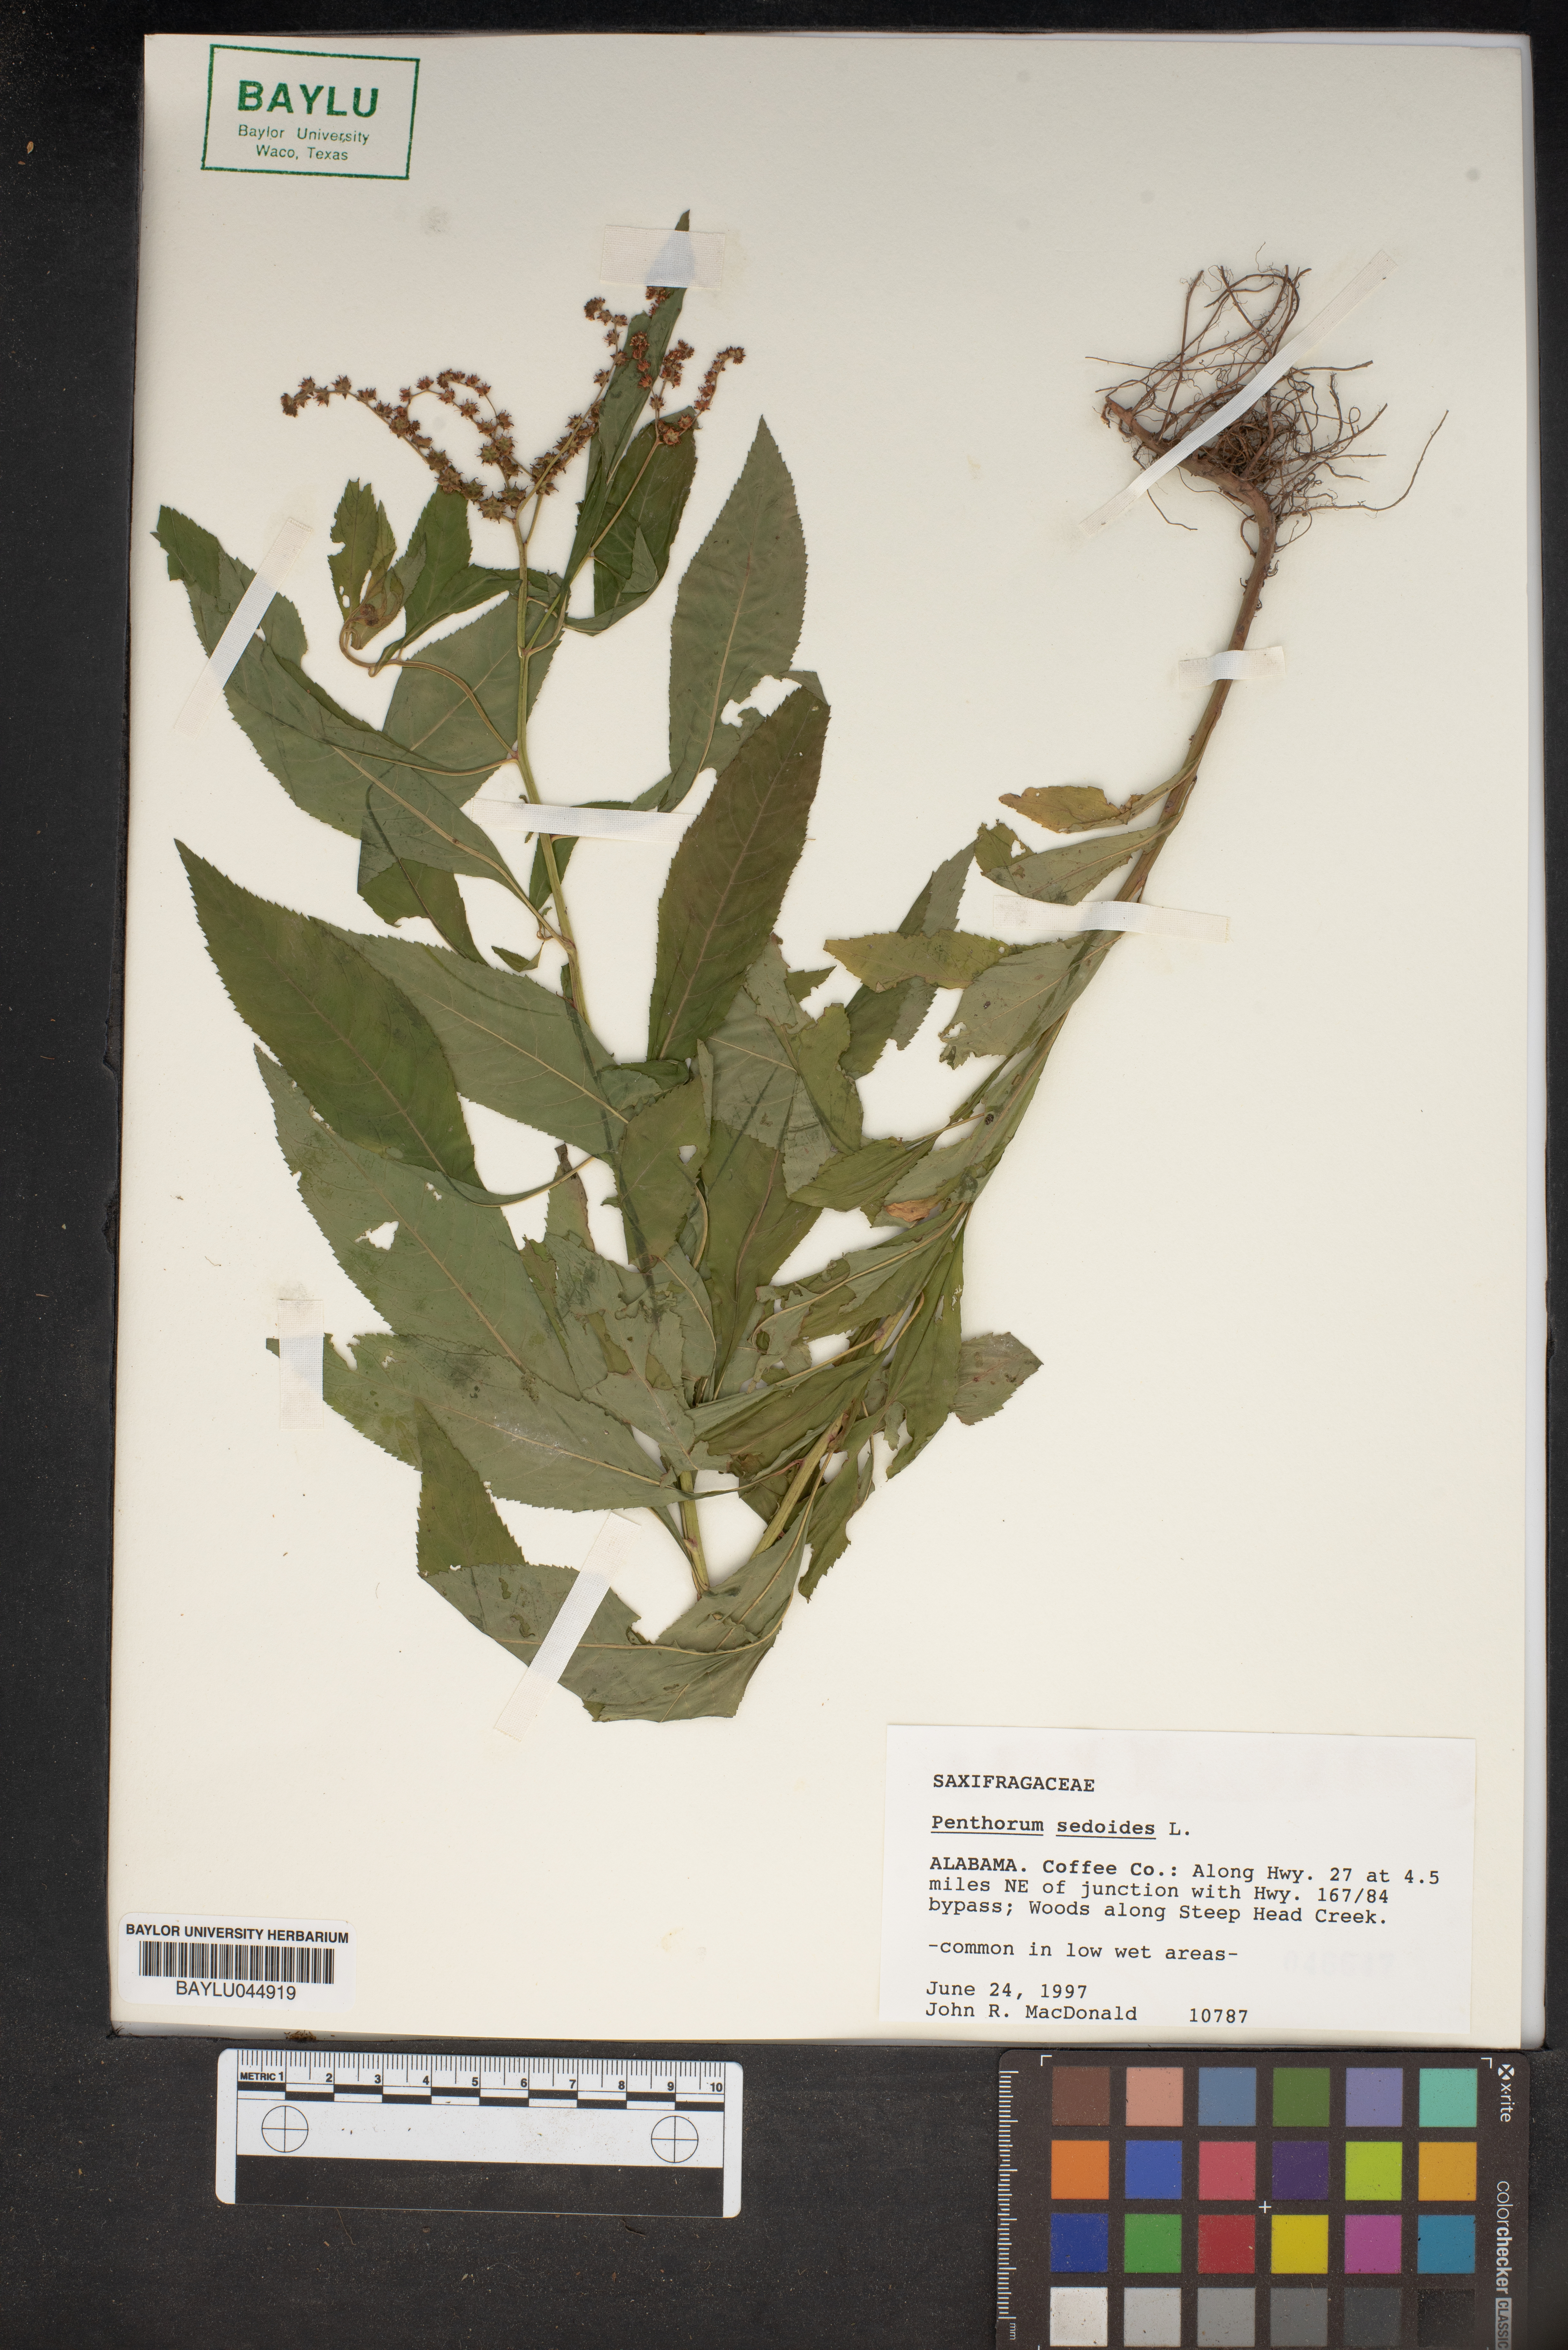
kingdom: Plantae
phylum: Tracheophyta
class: Magnoliopsida
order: Saxifragales
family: Penthoraceae
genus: Penthorum
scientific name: Penthorum sedoides
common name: Ditch stonecrop
